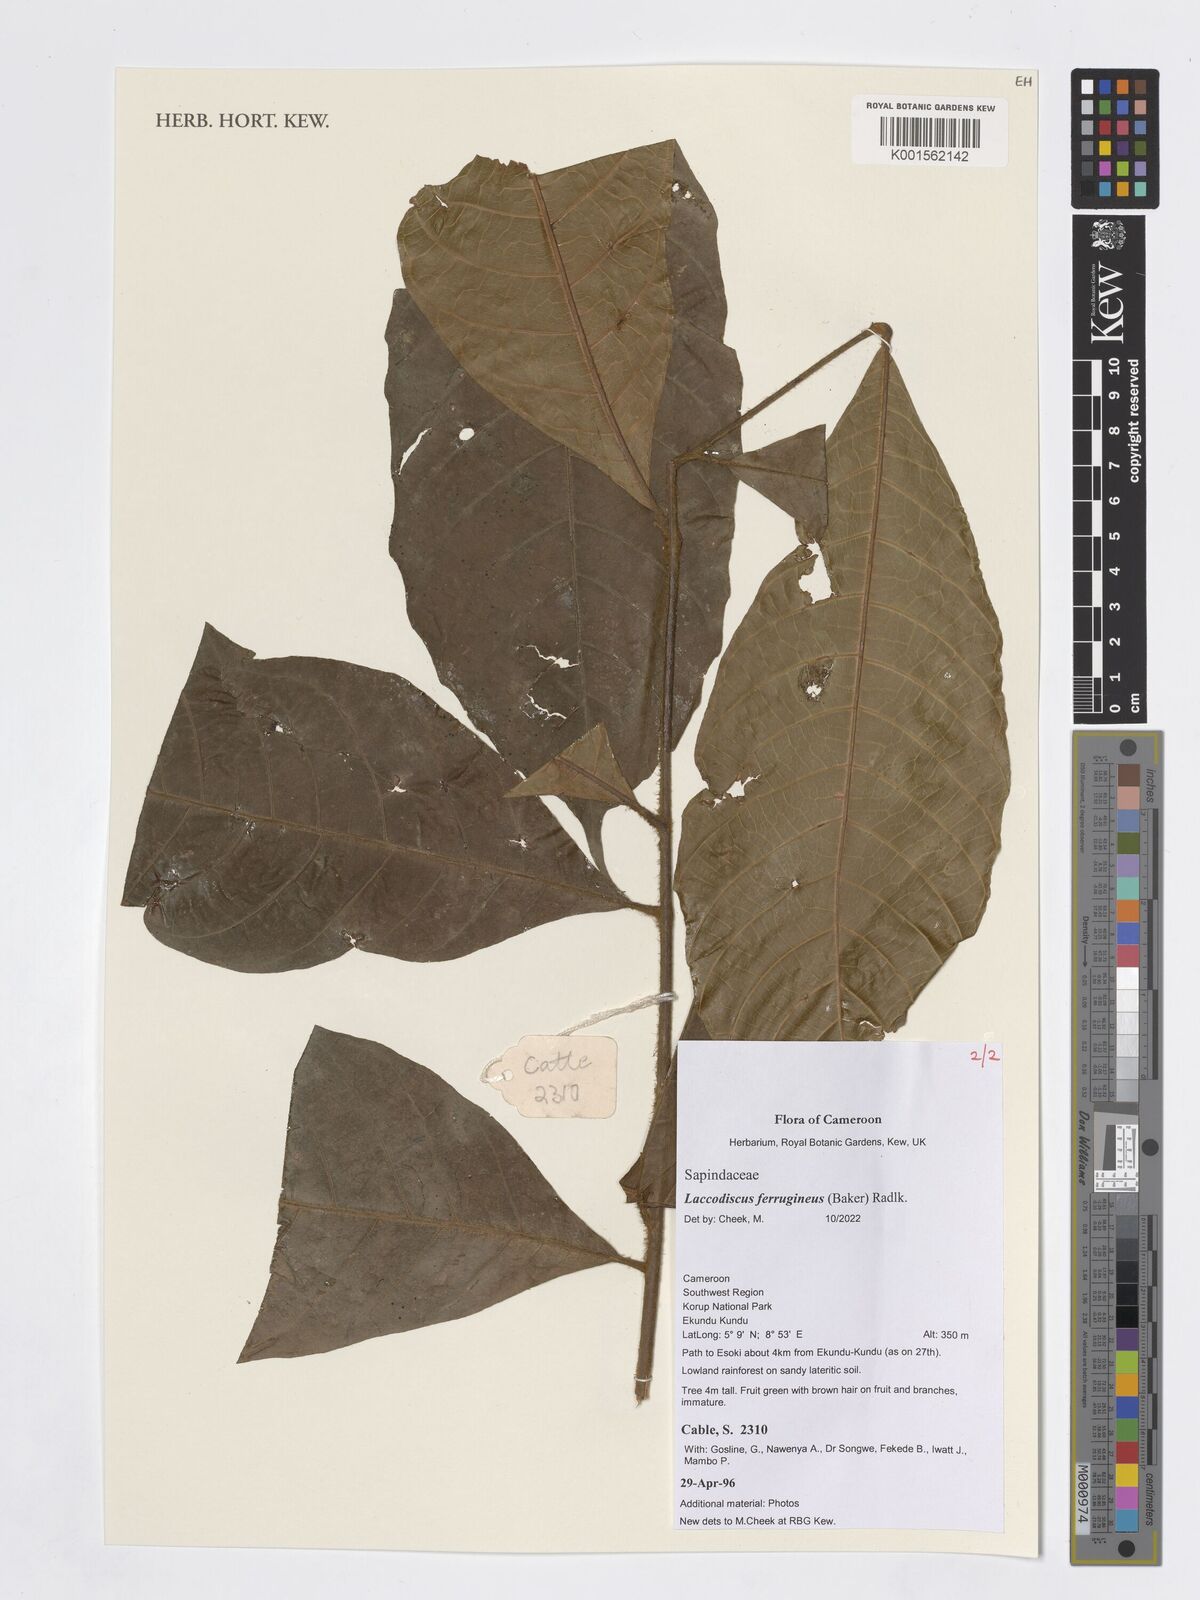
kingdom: Plantae
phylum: Tracheophyta
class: Magnoliopsida
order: Sapindales
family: Sapindaceae
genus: Laccodiscus
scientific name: Laccodiscus ferrugineus
